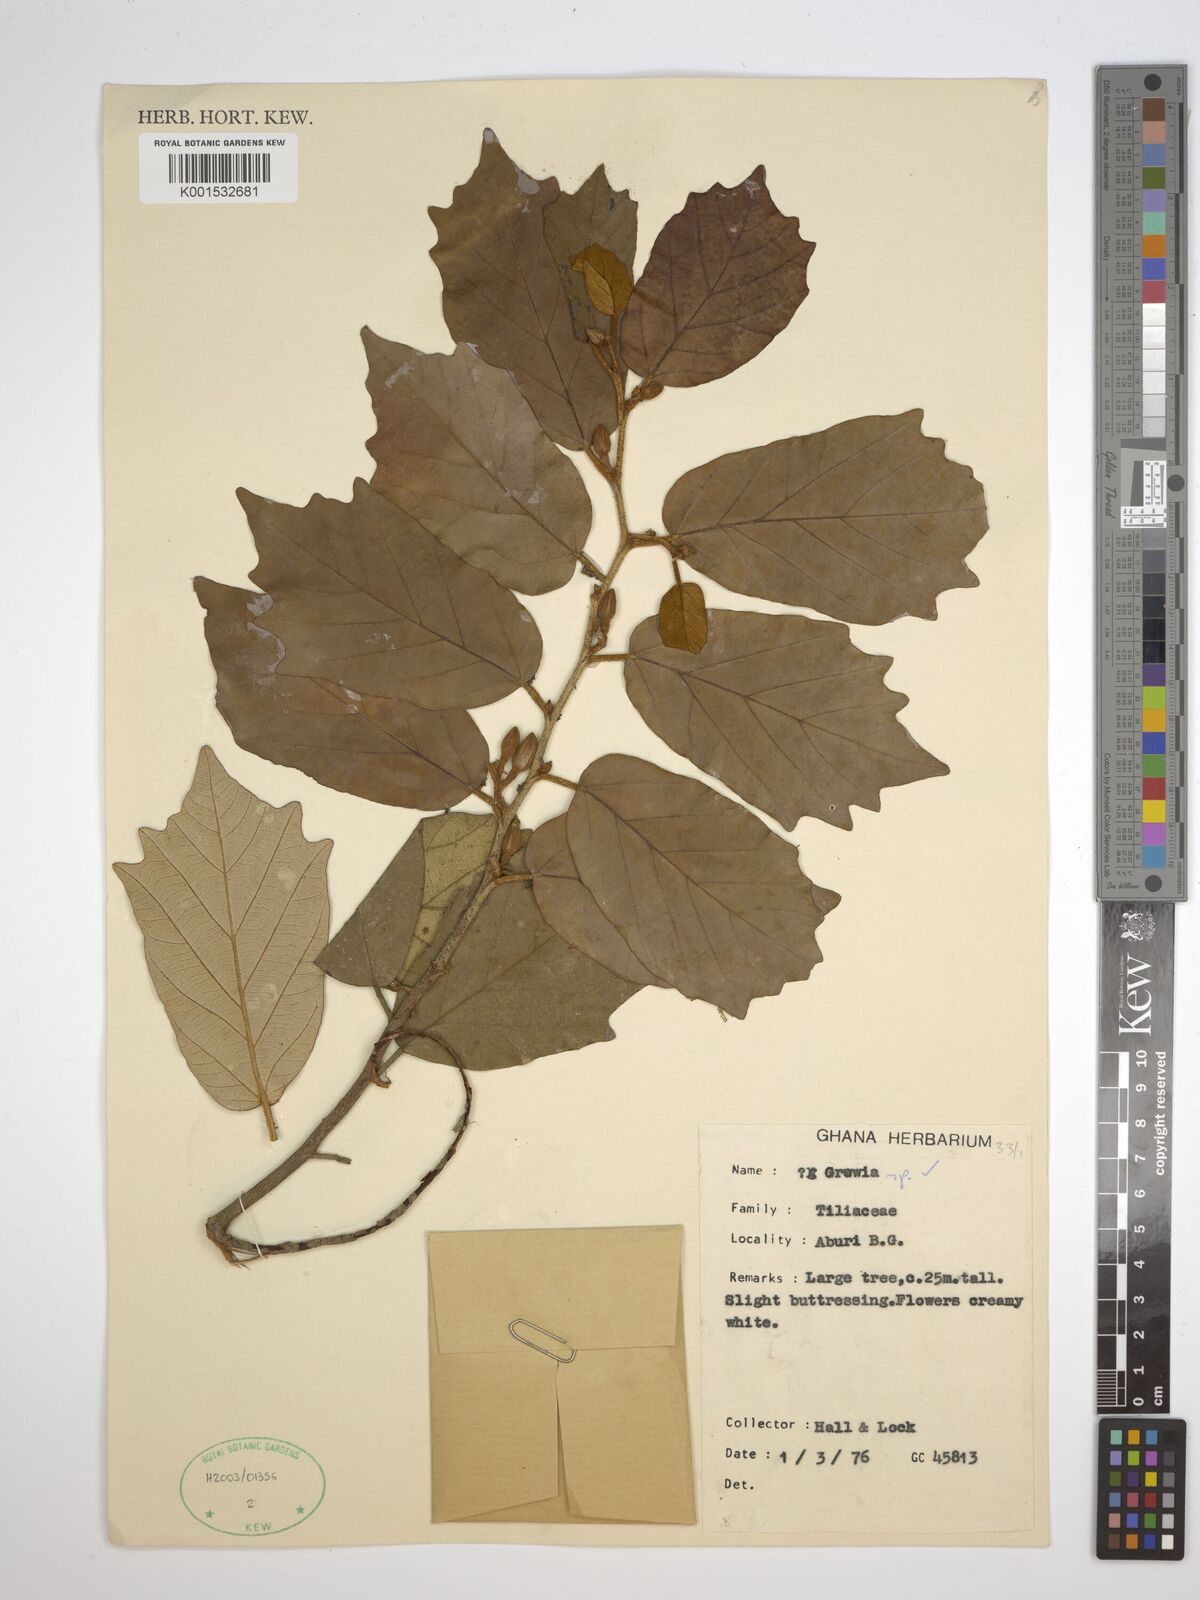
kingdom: Plantae
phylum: Tracheophyta
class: Magnoliopsida
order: Malvales
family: Malvaceae
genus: Grewia
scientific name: Grewia
